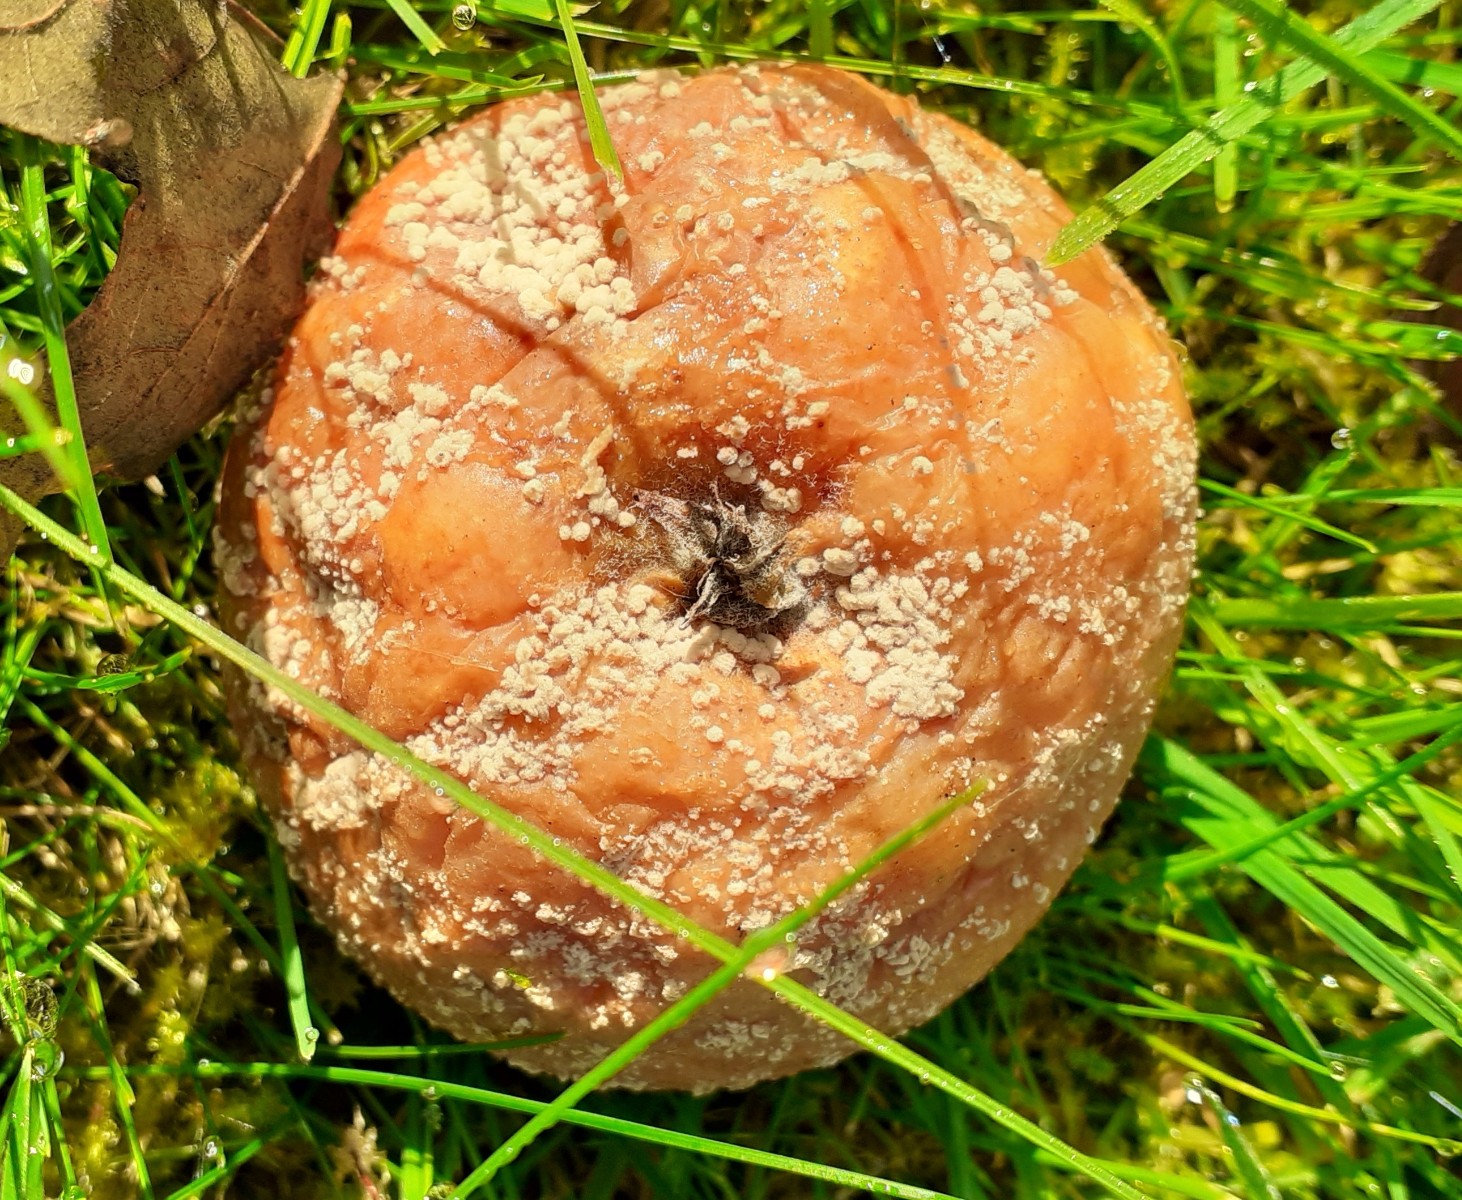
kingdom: Fungi
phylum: Ascomycota
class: Leotiomycetes
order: Helotiales
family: Sclerotiniaceae
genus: Monilinia
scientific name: Monilinia fructigena
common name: æble-knoldskive
